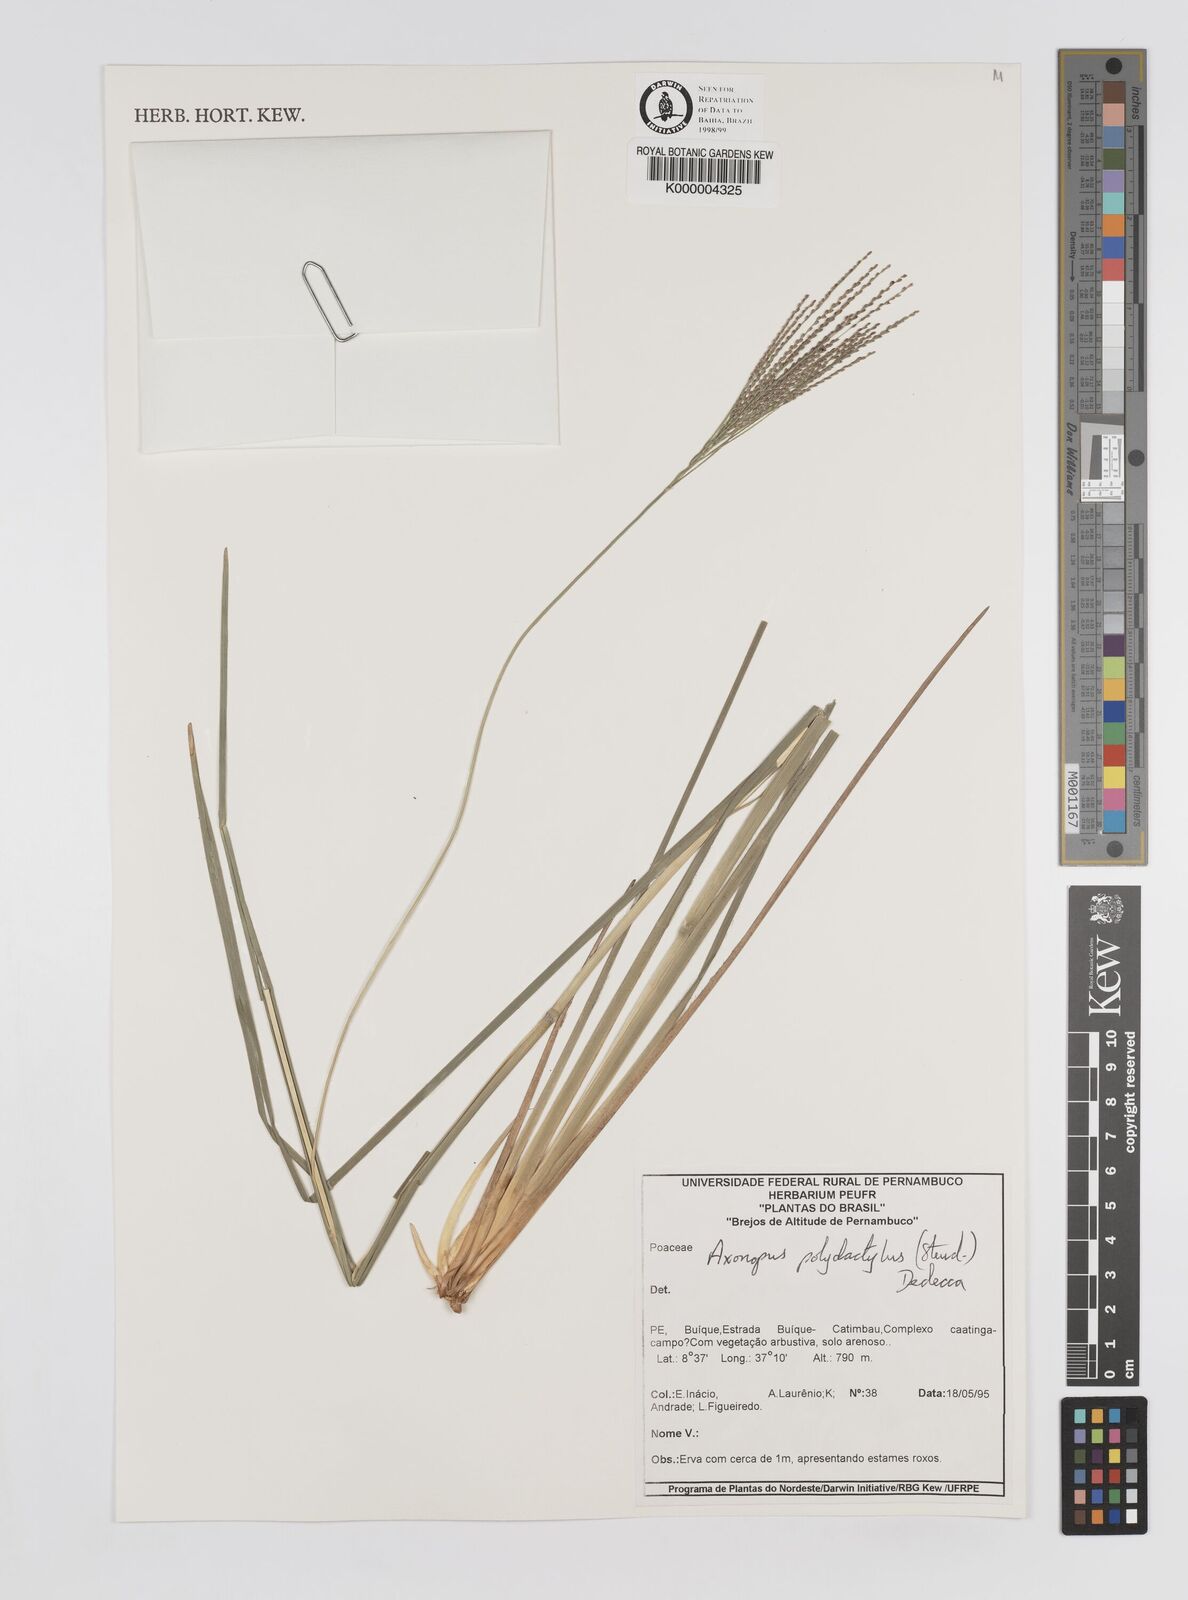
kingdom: Plantae
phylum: Tracheophyta
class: Liliopsida
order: Poales
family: Poaceae
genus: Axonopus
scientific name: Axonopus polydactylus
